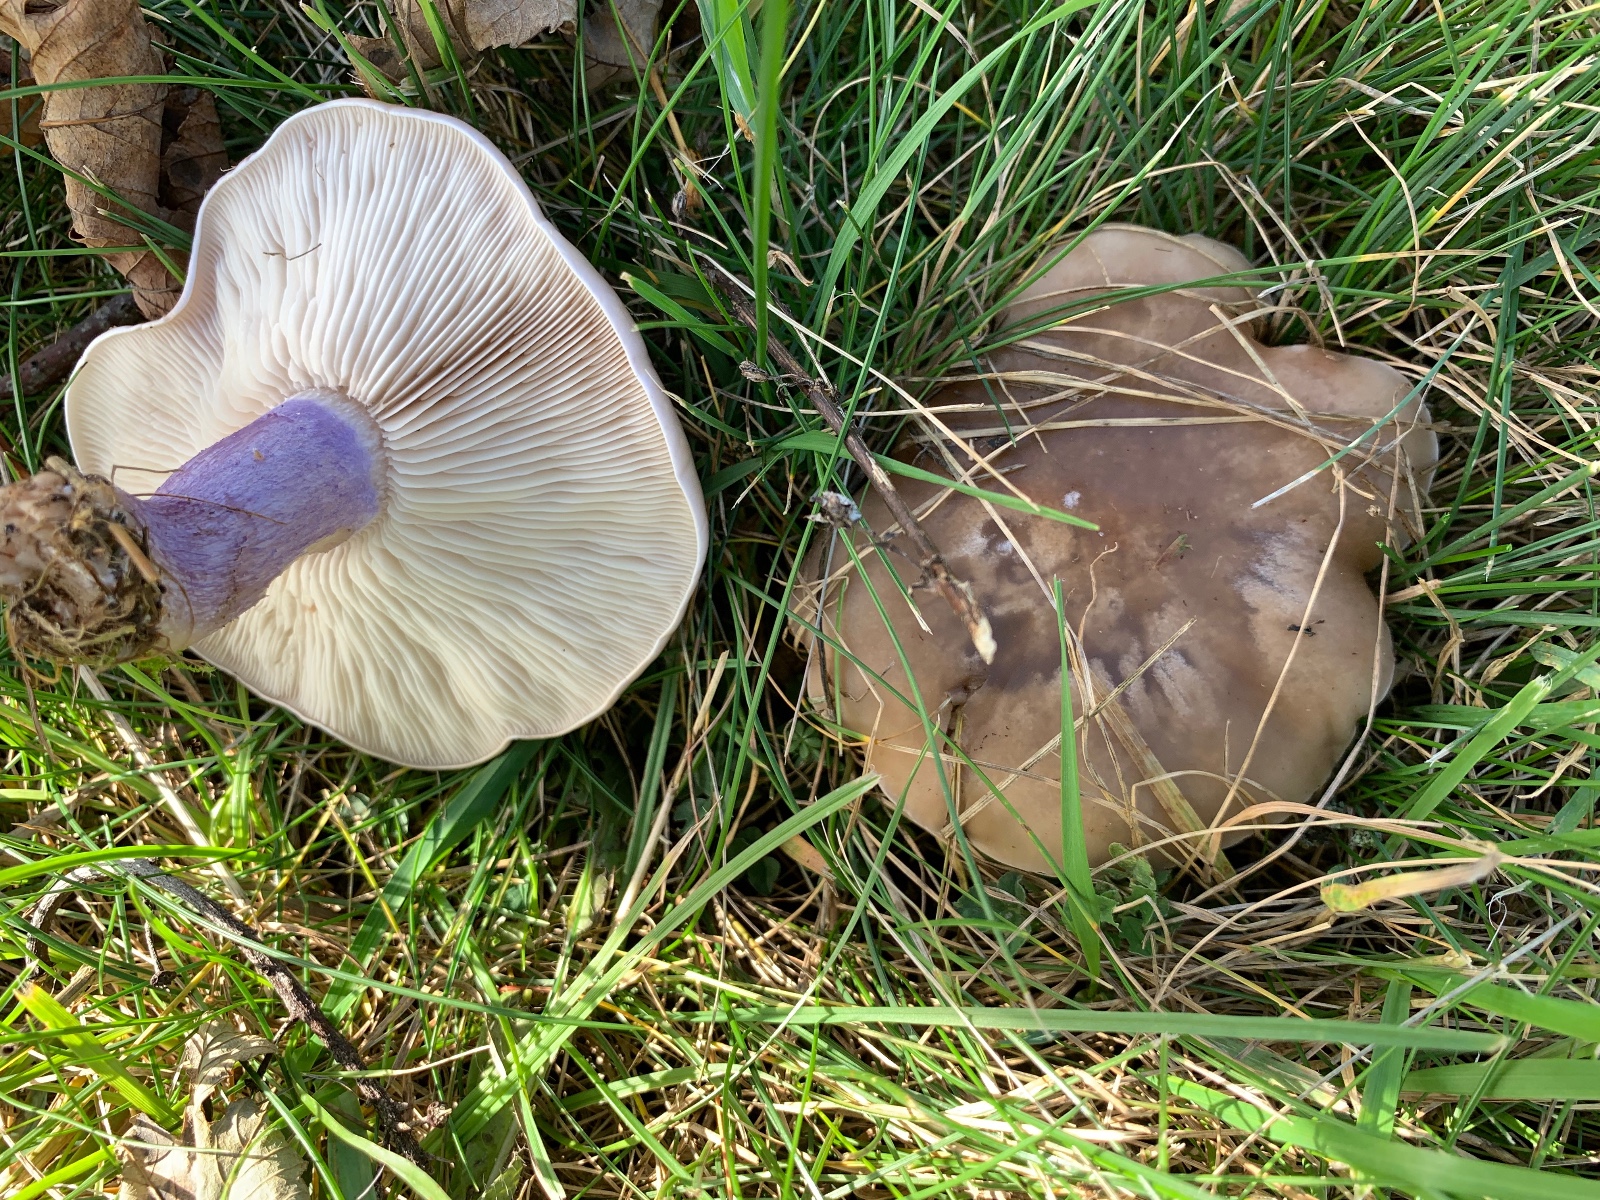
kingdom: Fungi
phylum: Basidiomycota
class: Agaricomycetes
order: Agaricales
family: Tricholomataceae
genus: Lepista
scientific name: Lepista personata
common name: bleg hekseringshat
